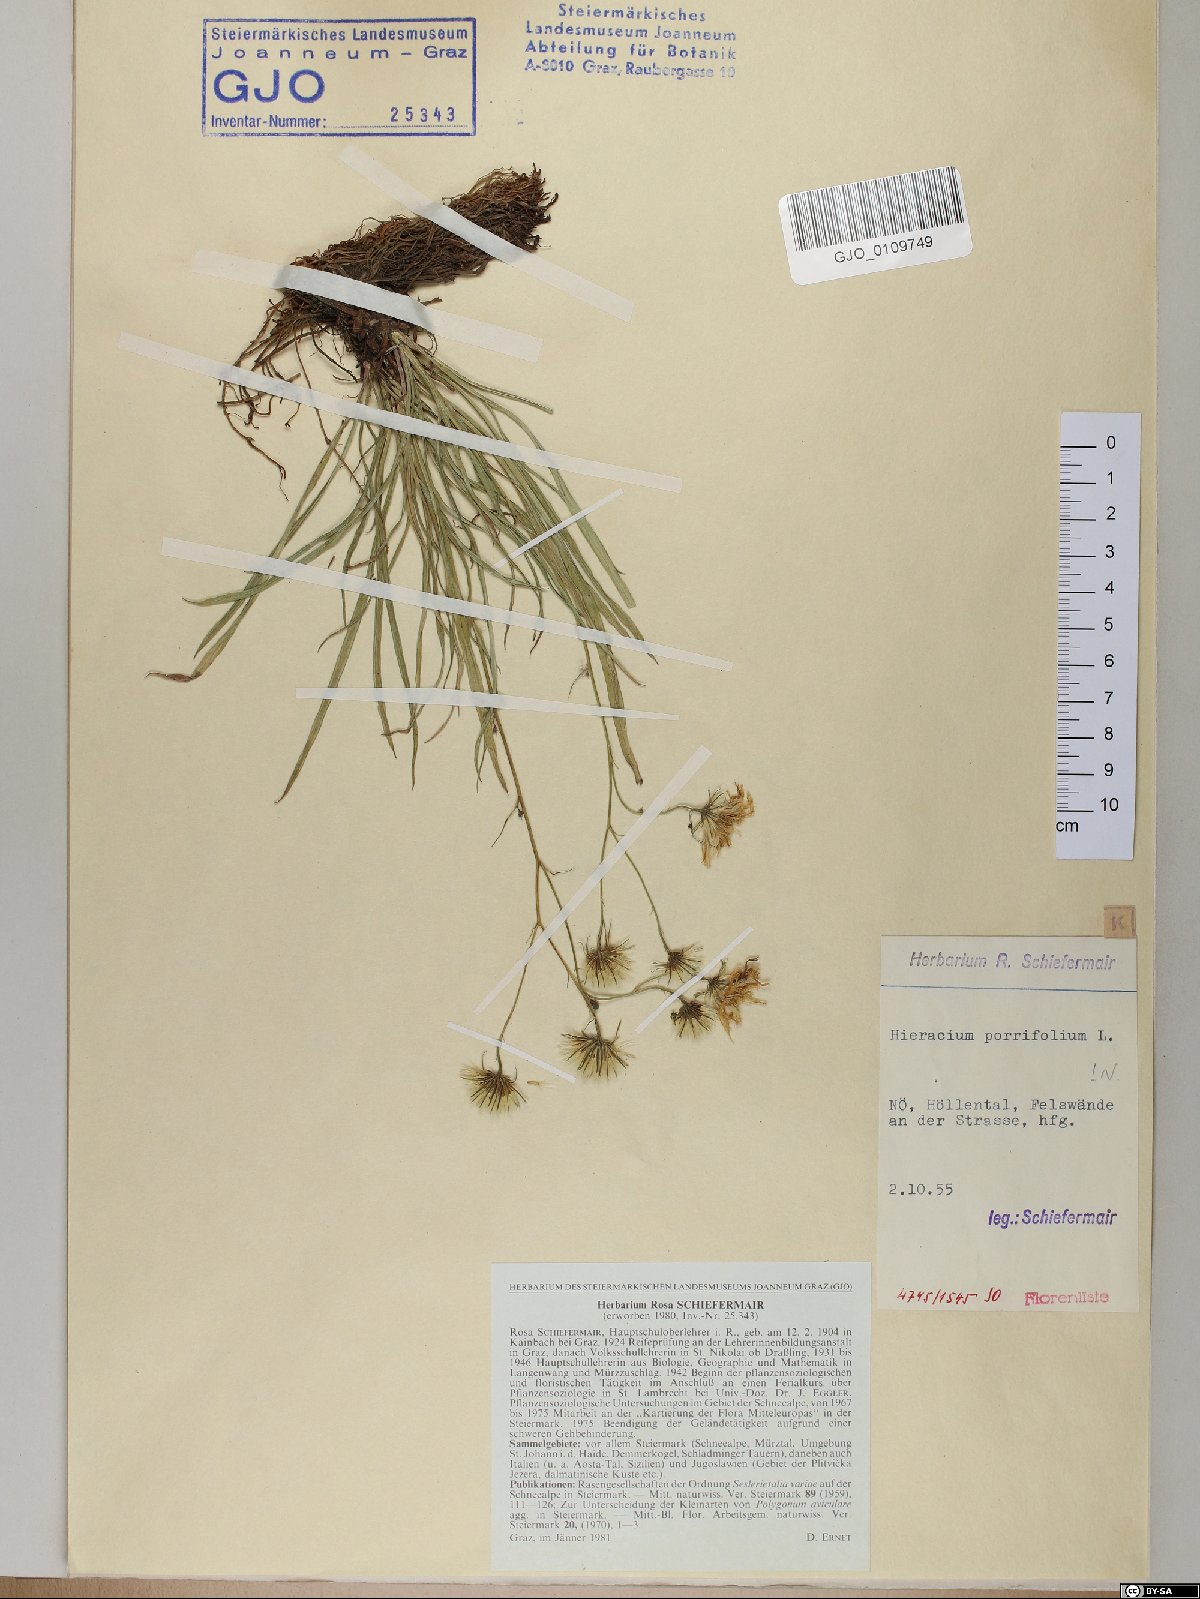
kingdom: Plantae
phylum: Tracheophyta
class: Magnoliopsida
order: Asterales
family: Asteraceae
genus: Hieracium
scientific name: Hieracium porrifolium
